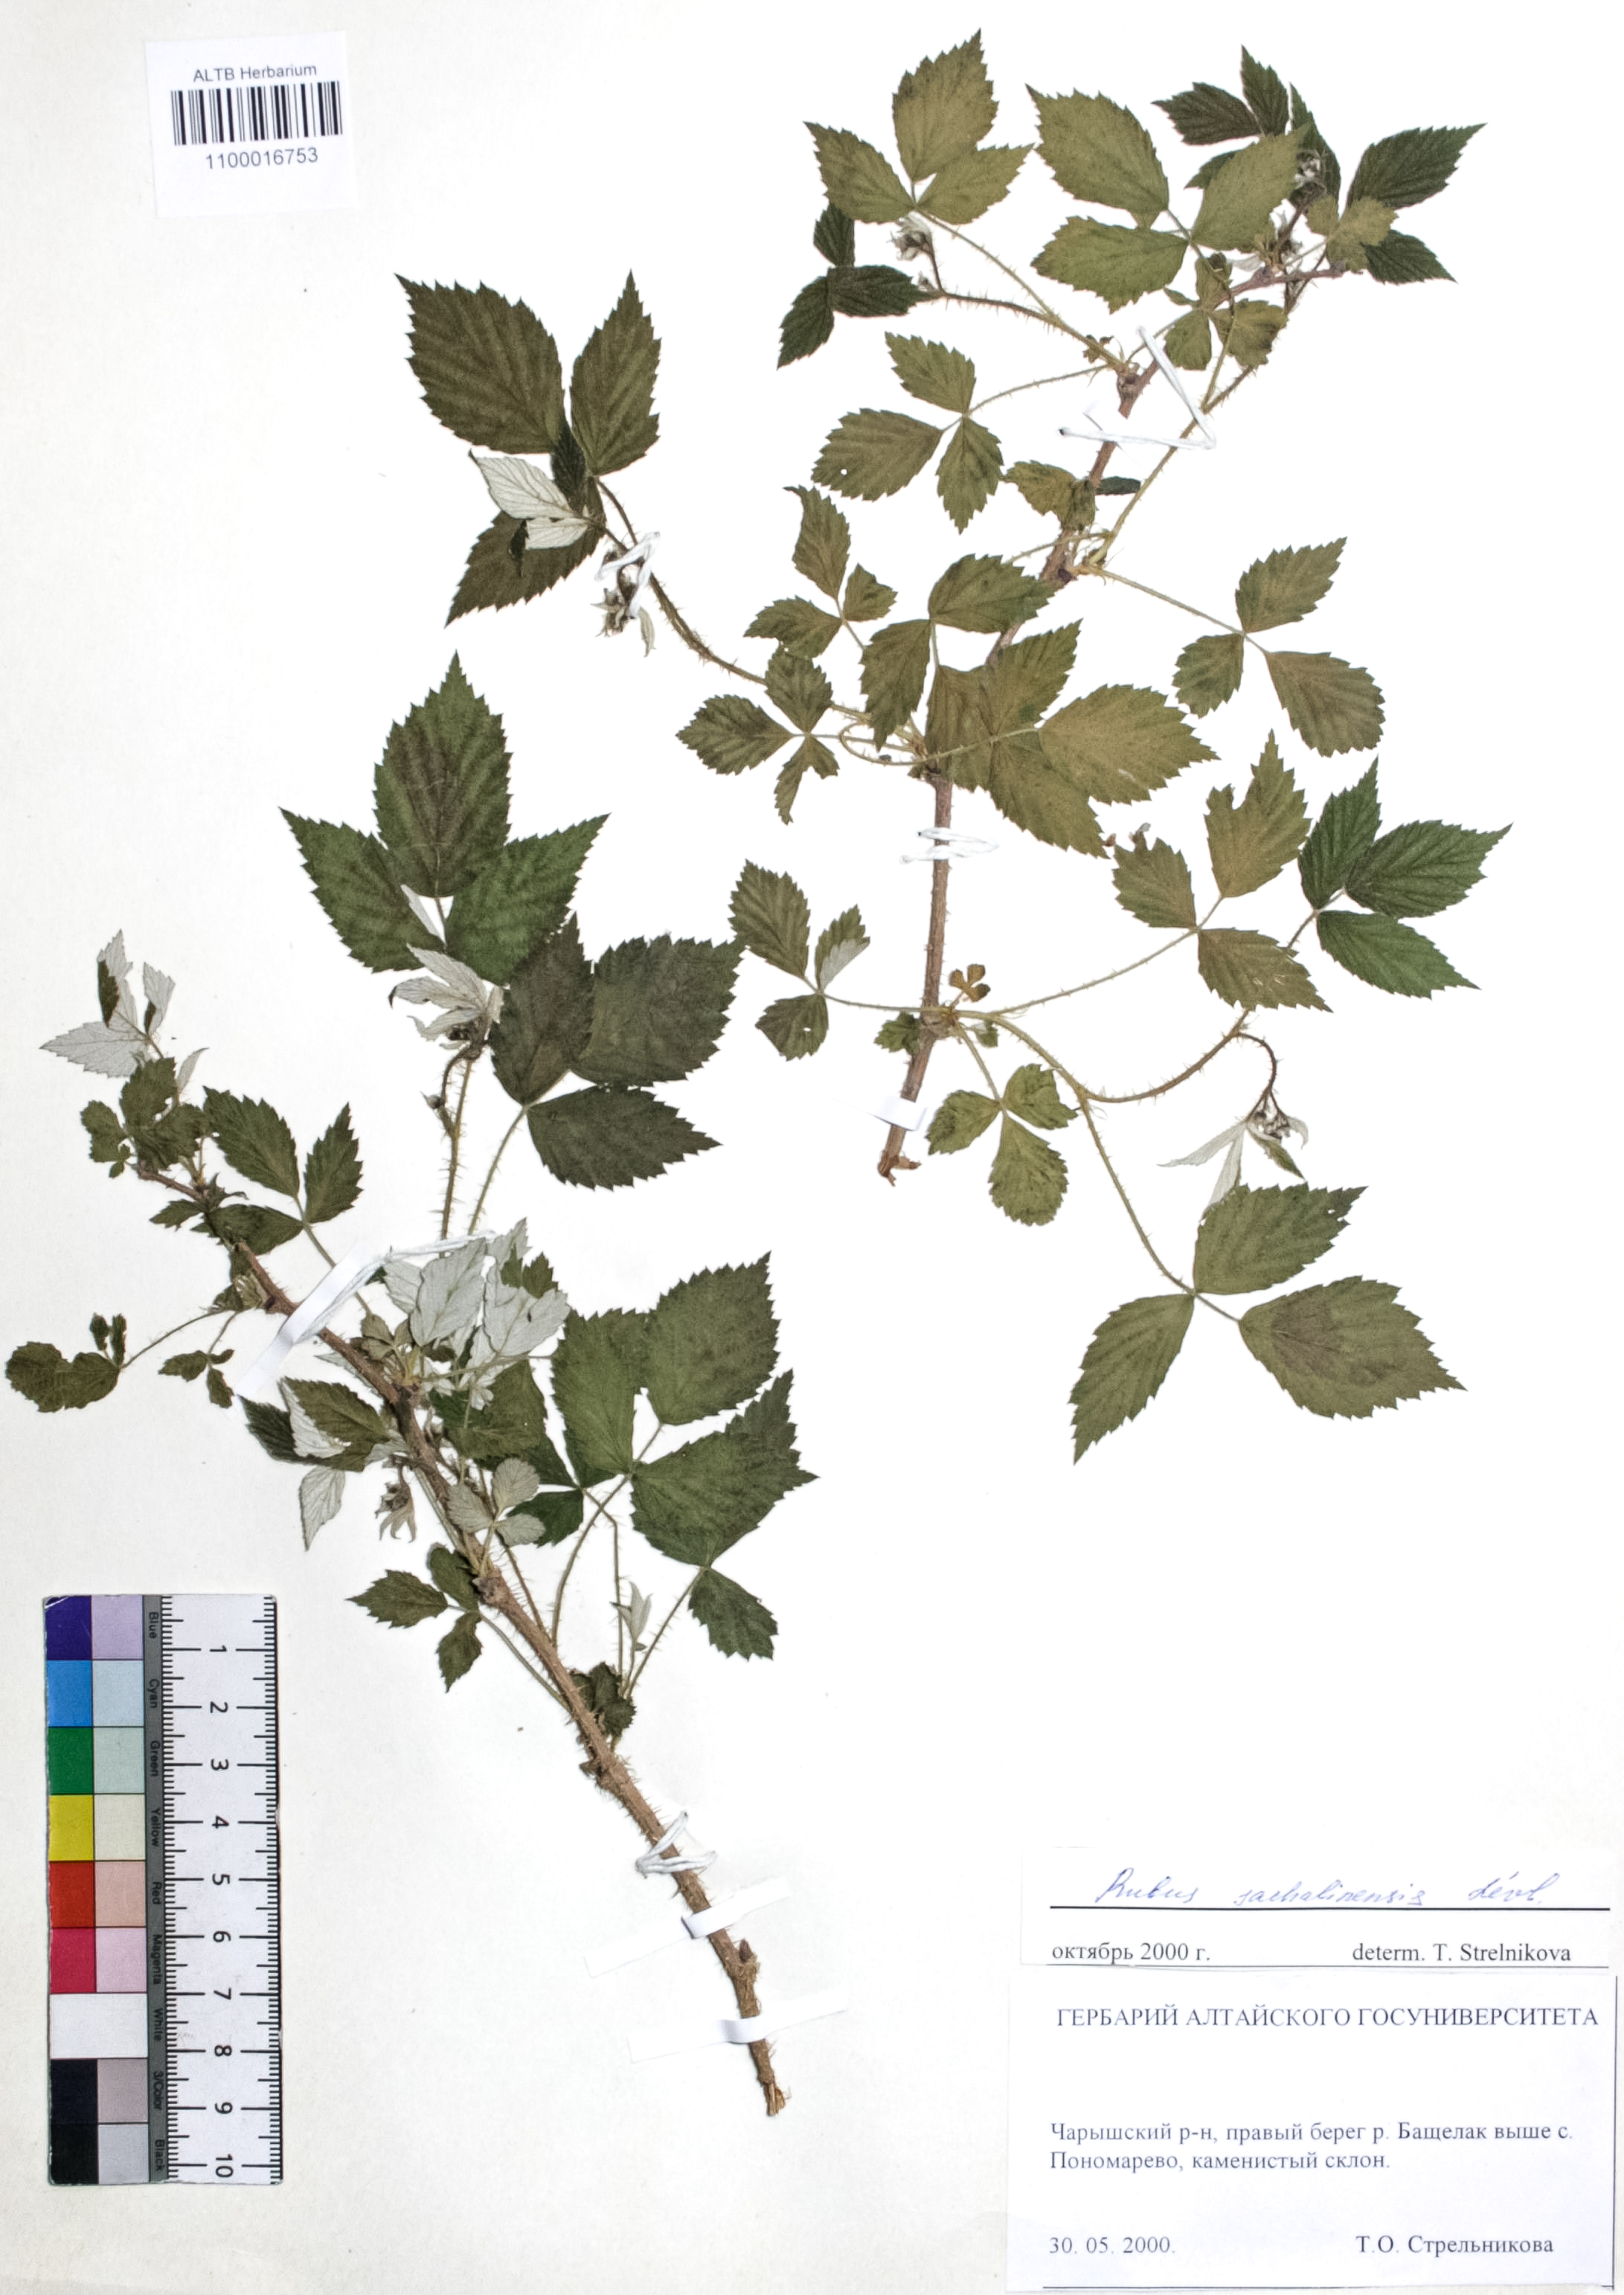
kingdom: Plantae
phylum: Tracheophyta
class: Magnoliopsida
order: Rosales
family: Rosaceae
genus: Rubus
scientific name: Rubus sachalinensis
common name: Red raspberry
